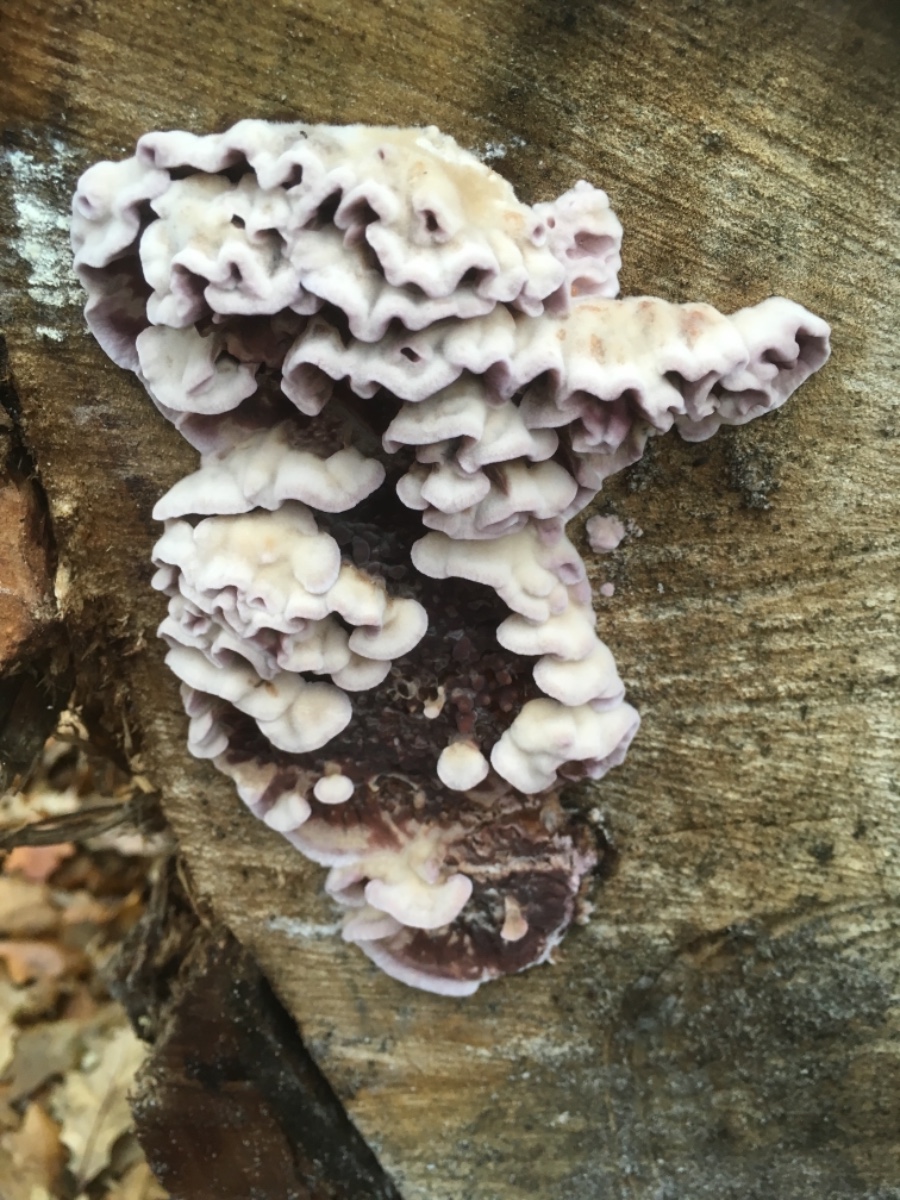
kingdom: Fungi
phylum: Basidiomycota
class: Agaricomycetes
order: Agaricales
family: Cyphellaceae
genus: Chondrostereum
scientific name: Chondrostereum purpureum
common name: purpurlædersvamp
